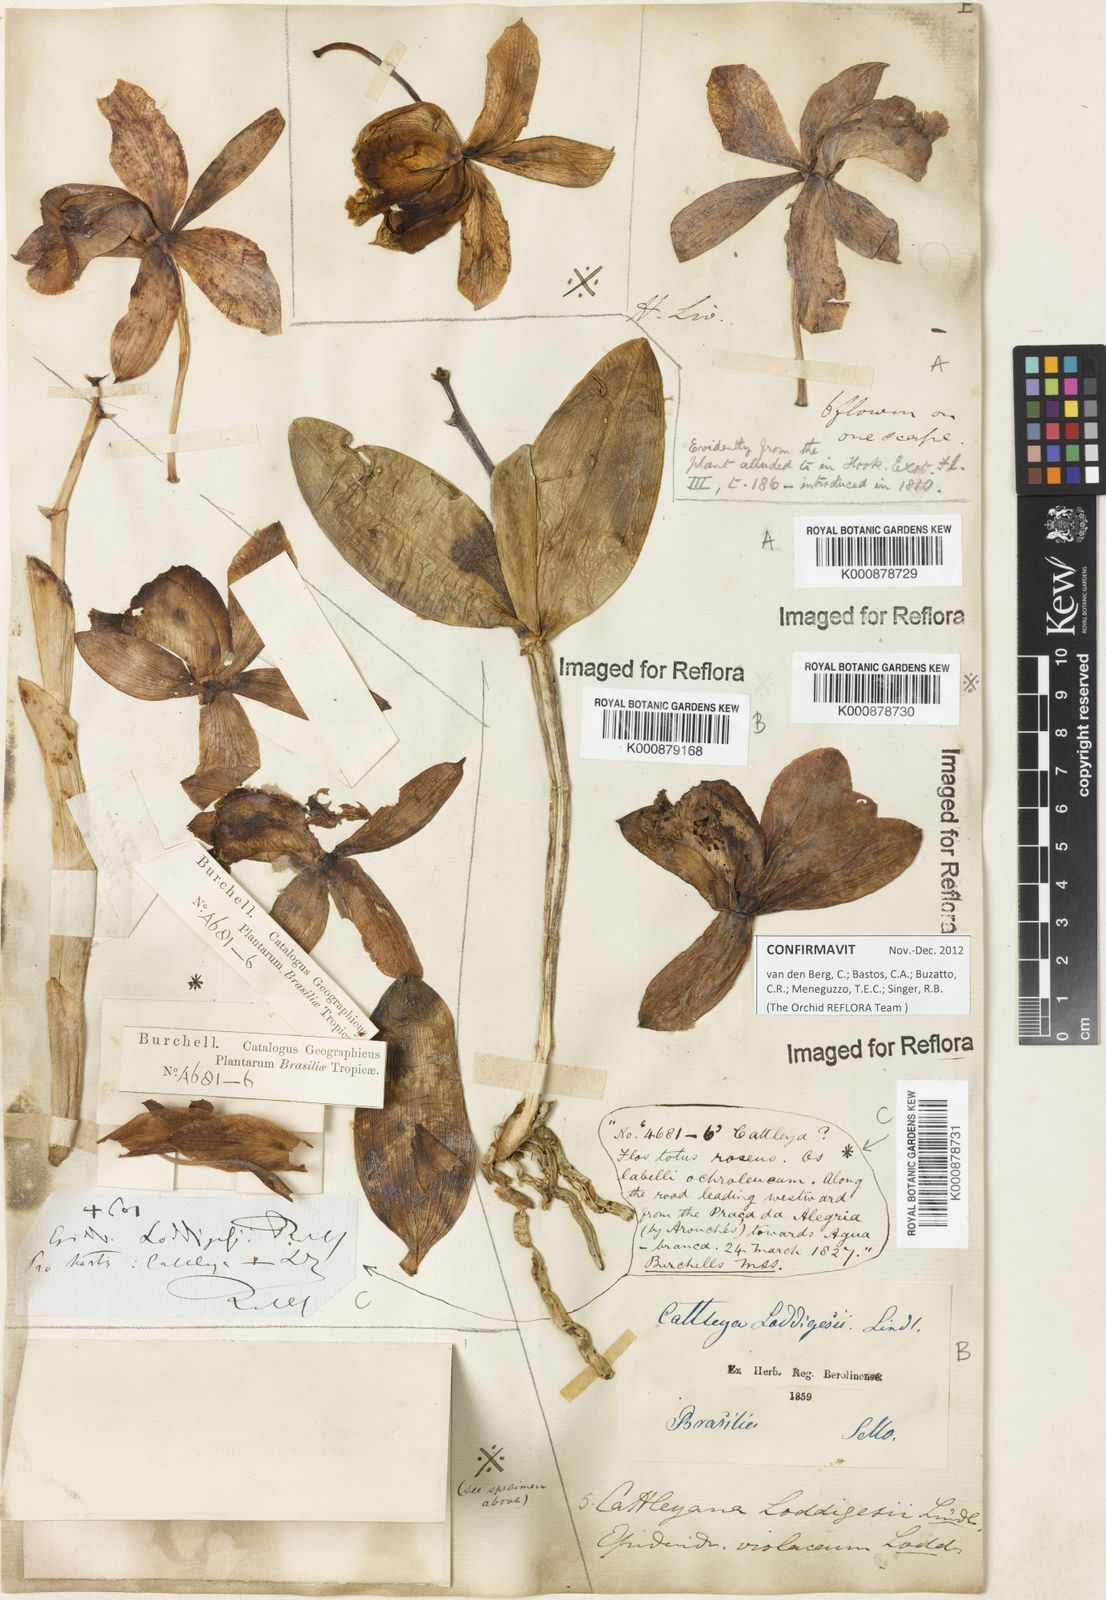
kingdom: Plantae
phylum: Tracheophyta
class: Liliopsida
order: Asparagales
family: Orchidaceae
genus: Cattleya
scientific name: Cattleya loddigesii
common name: Loddiges's cattleya
